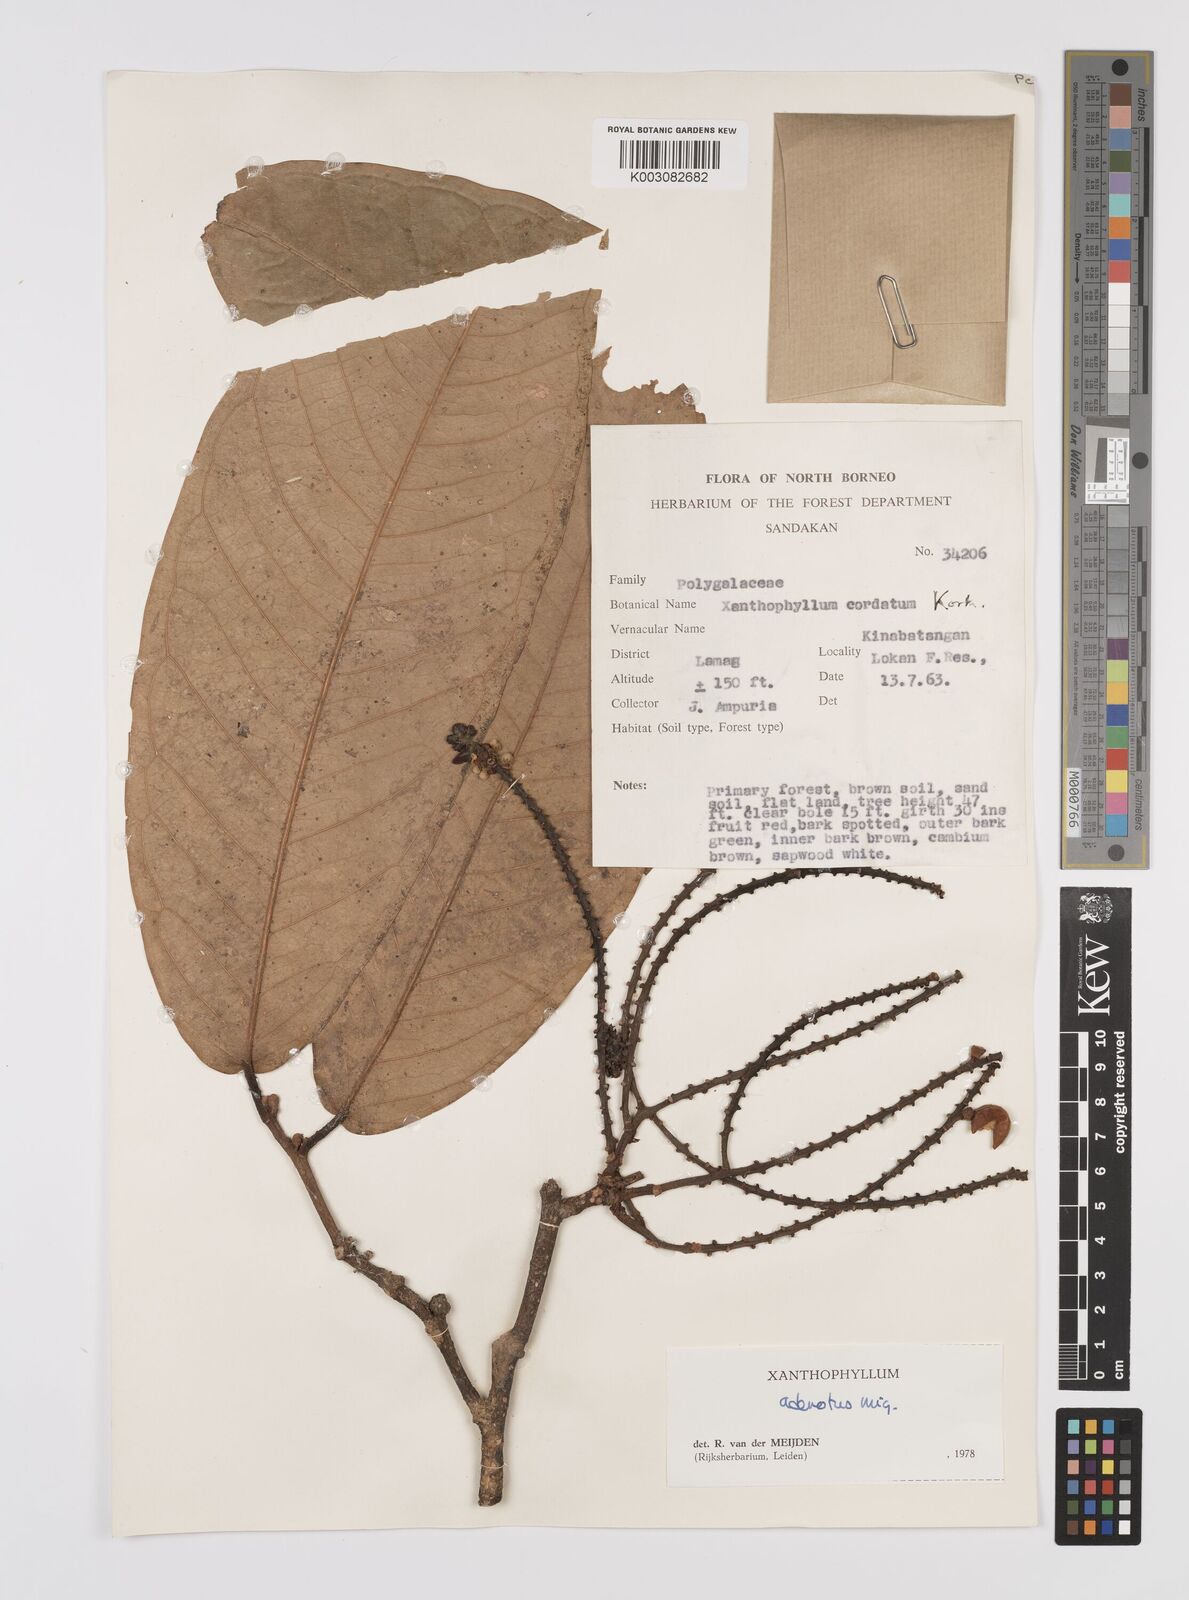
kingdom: Plantae
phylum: Tracheophyta
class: Magnoliopsida
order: Fabales
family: Polygalaceae
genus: Xanthophyllum
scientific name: Xanthophyllum adenotus
